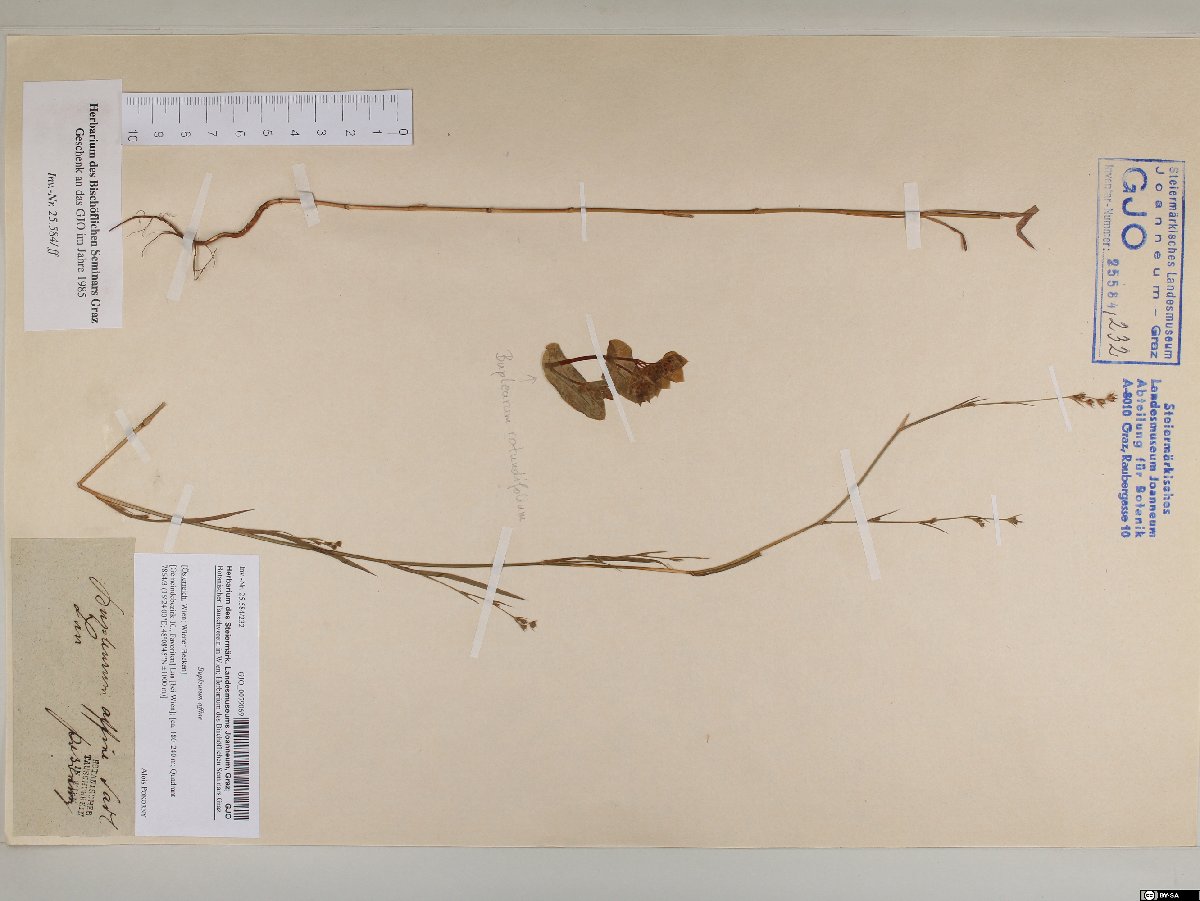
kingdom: Plantae
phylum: Tracheophyta
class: Magnoliopsida
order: Apiales
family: Apiaceae
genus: Bupleurum
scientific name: Bupleurum affine
